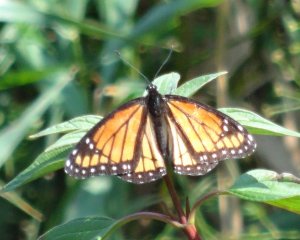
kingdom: Animalia
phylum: Arthropoda
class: Insecta
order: Lepidoptera
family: Nymphalidae
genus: Limenitis
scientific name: Limenitis archippus
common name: Viceroy
